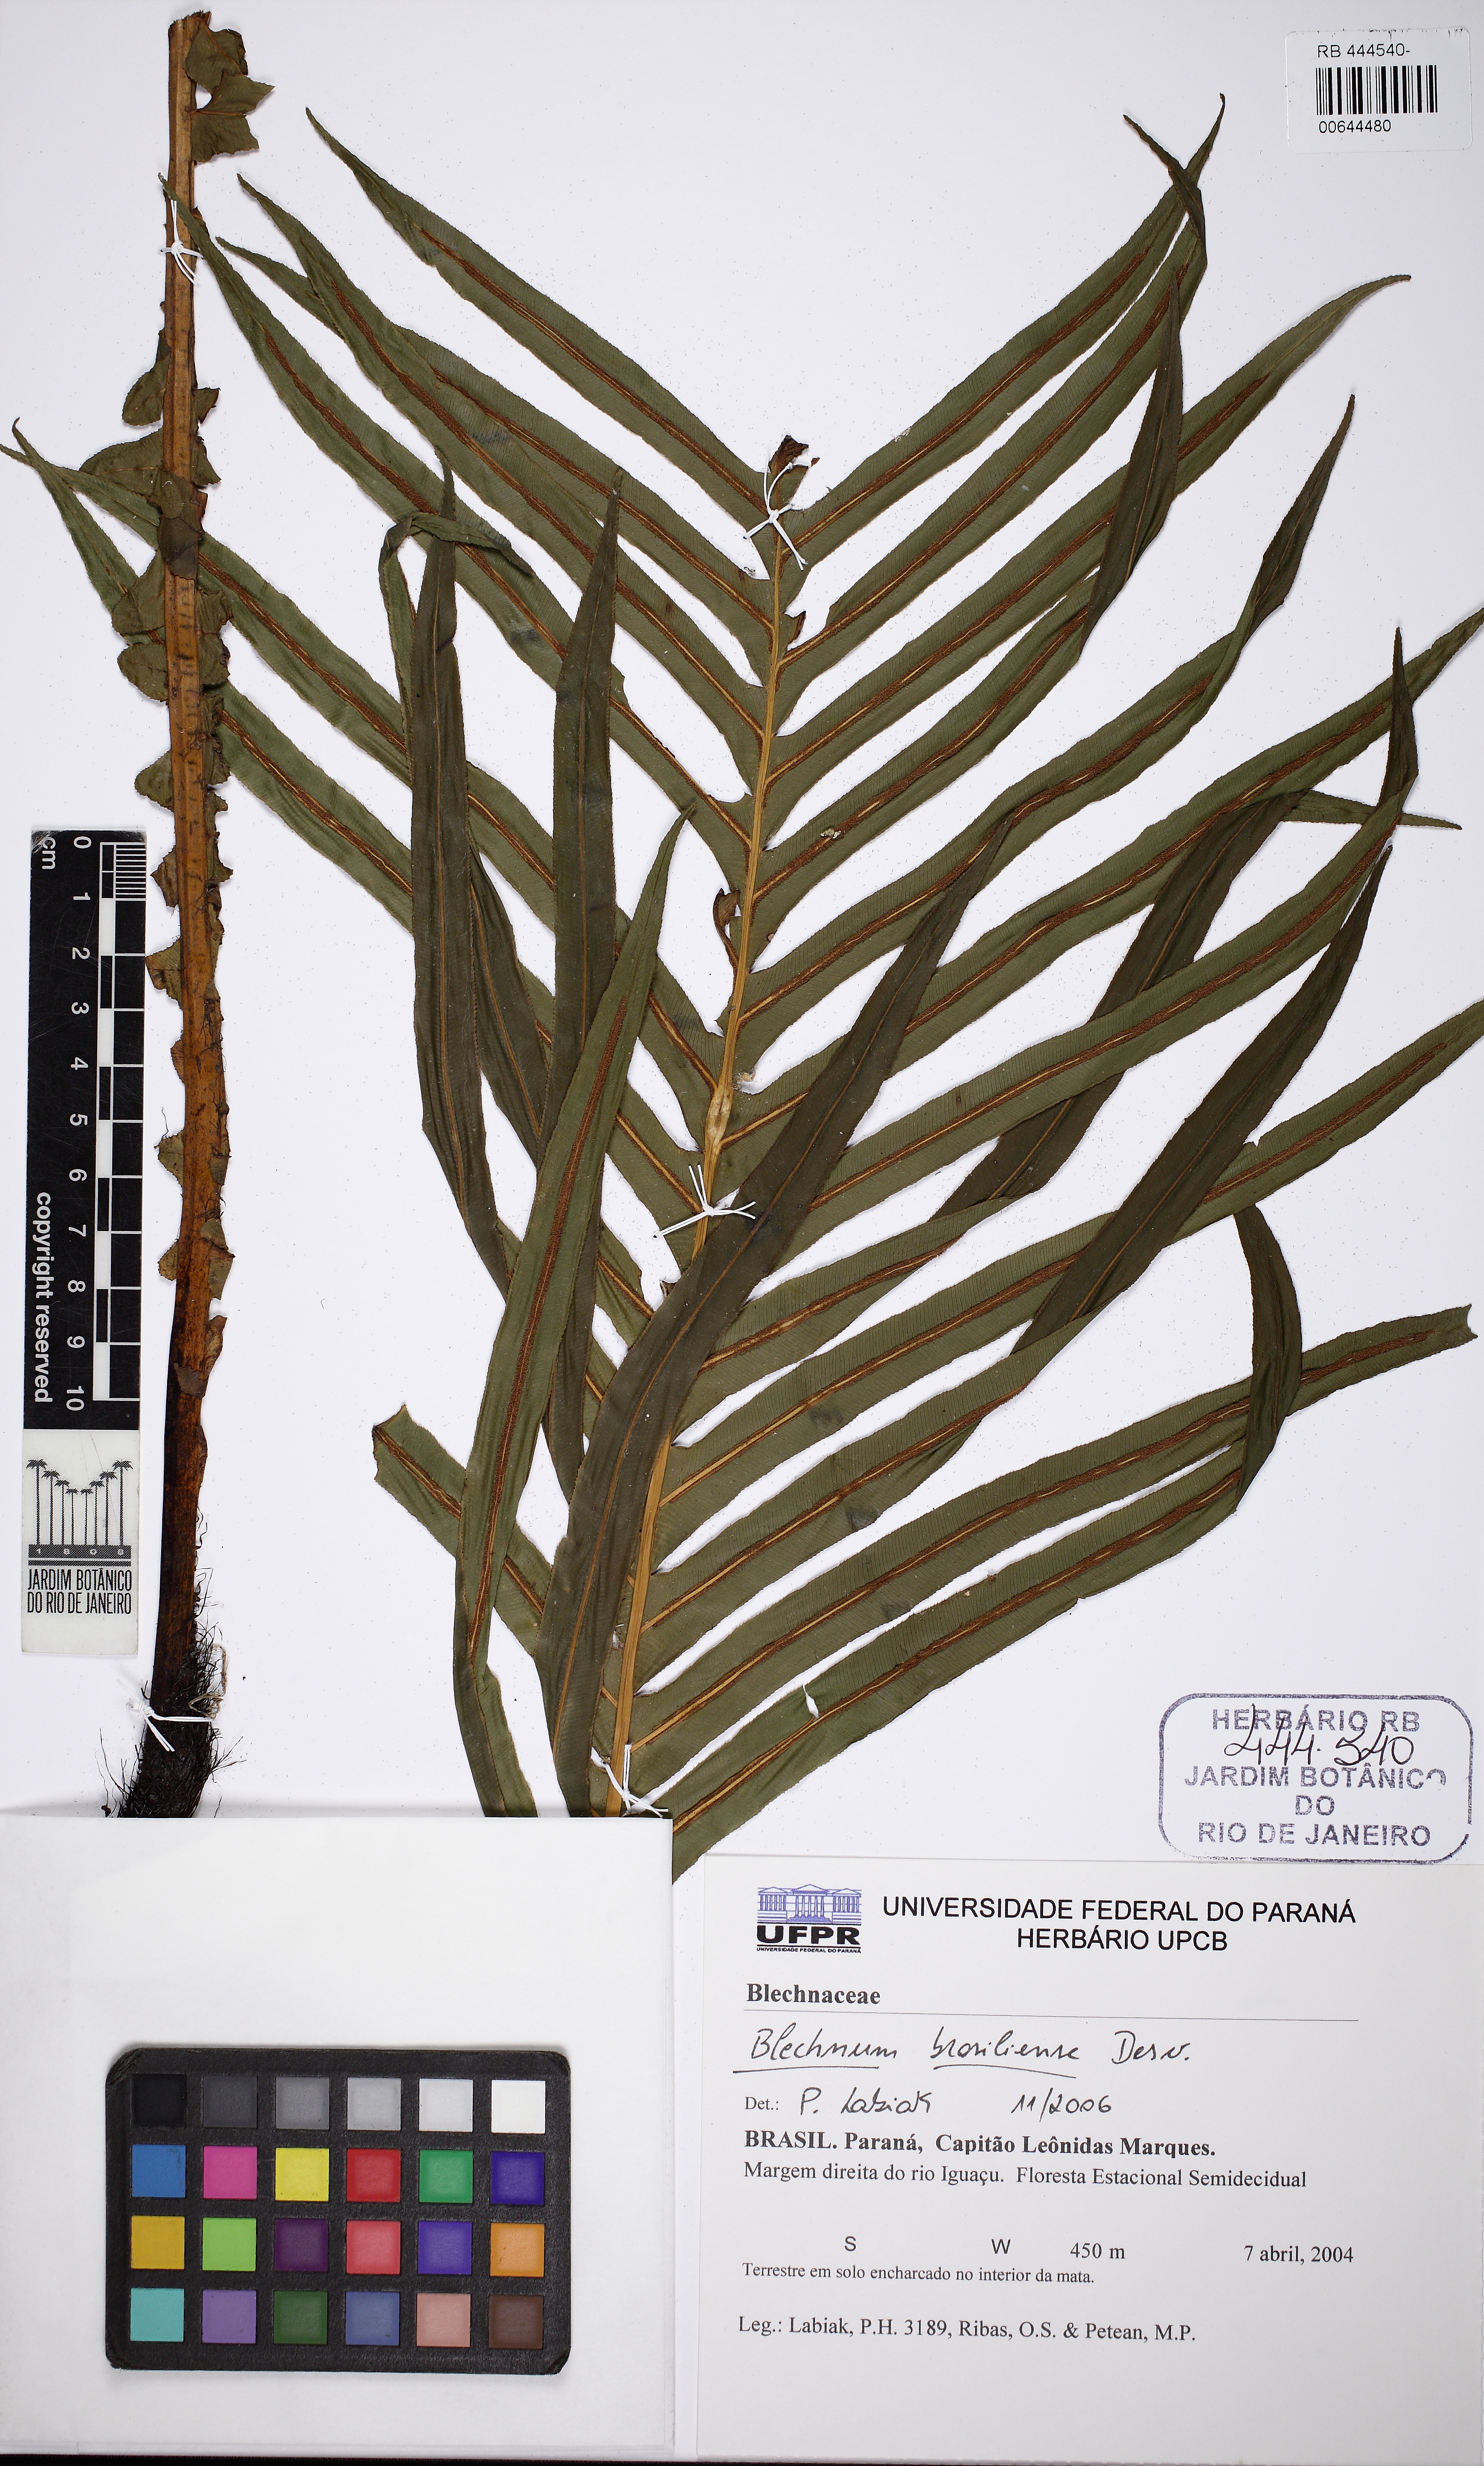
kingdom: Plantae
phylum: Tracheophyta
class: Polypodiopsida
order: Polypodiales
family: Blechnaceae
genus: Neoblechnum
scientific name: Neoblechnum brasiliense
